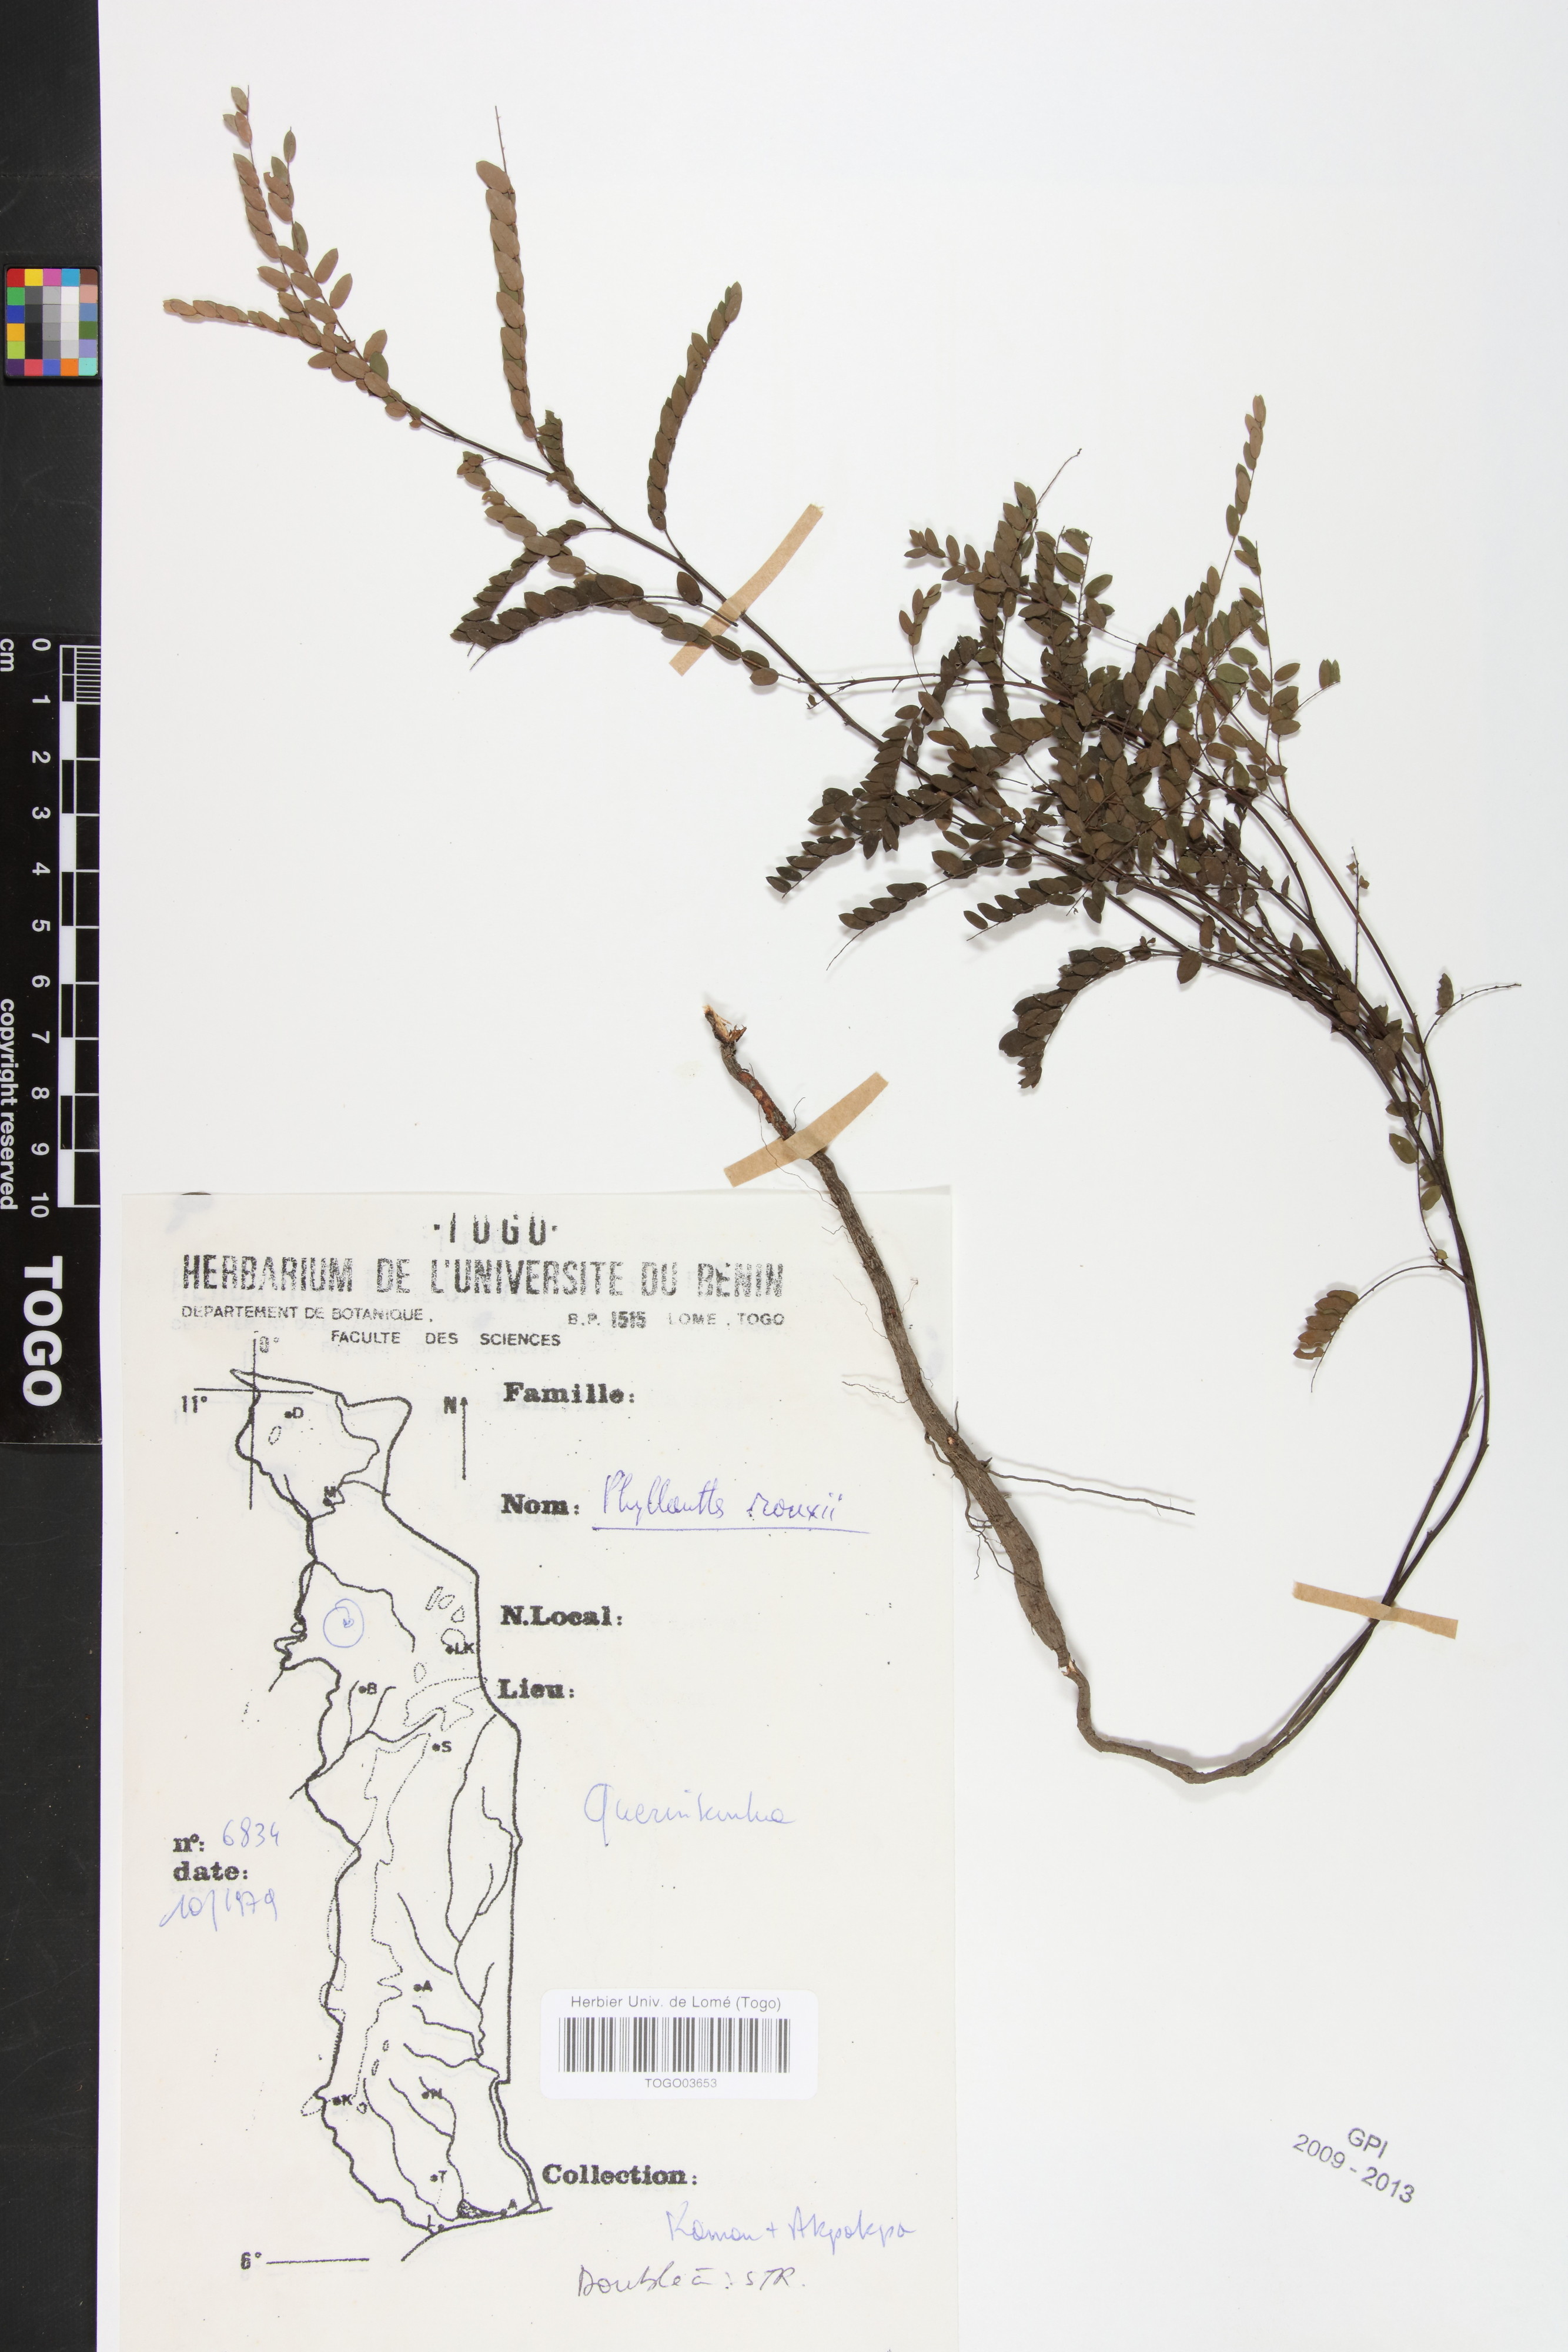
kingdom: Plantae
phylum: Tracheophyta
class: Magnoliopsida
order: Malpighiales
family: Phyllanthaceae
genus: Phyllanthus
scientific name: Phyllanthus rouxii
